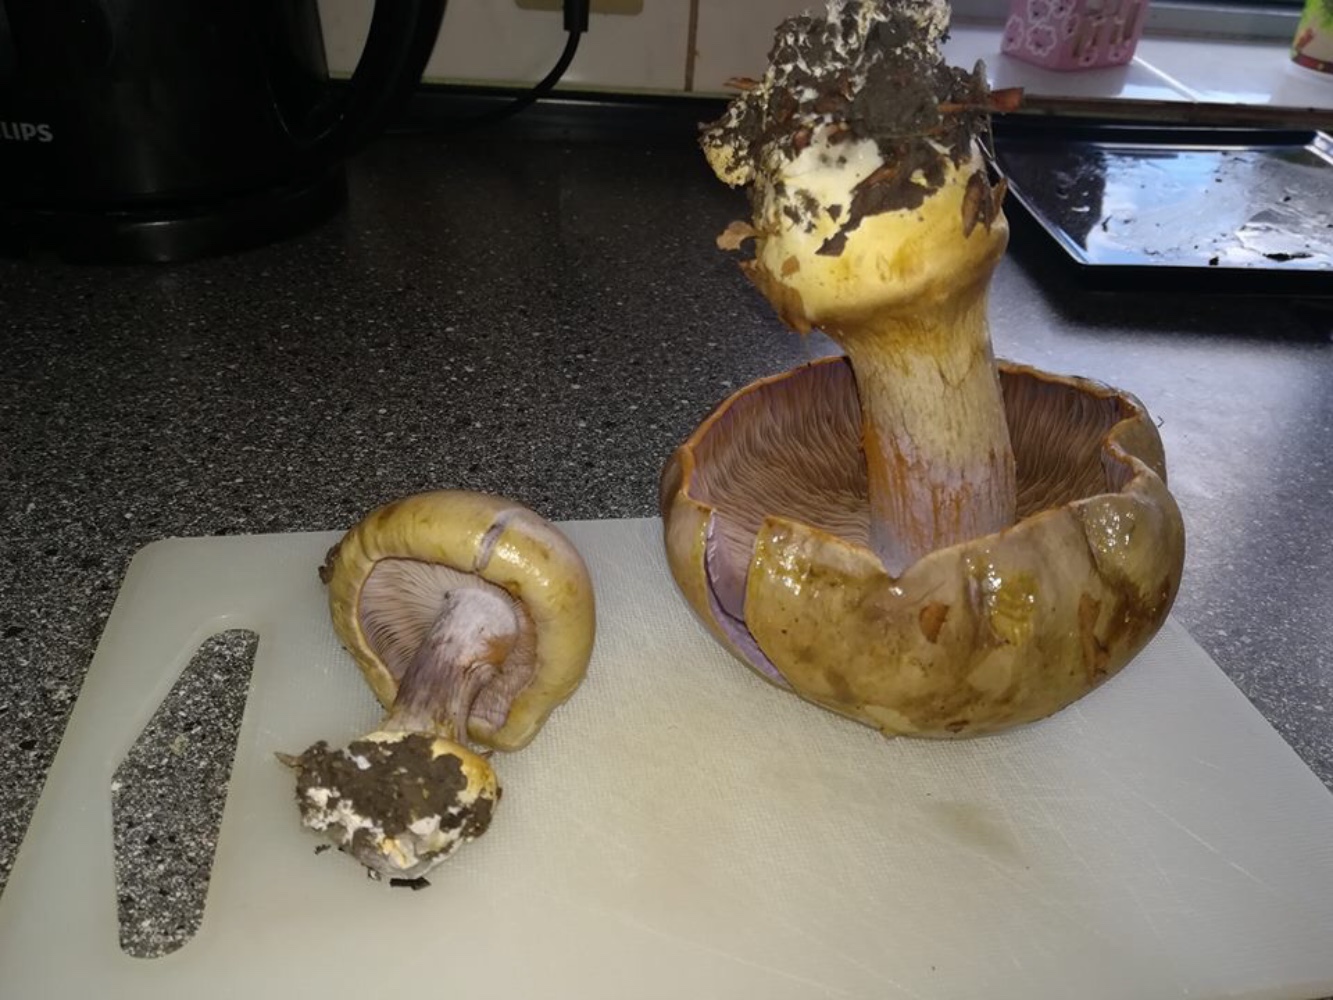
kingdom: Fungi
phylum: Basidiomycota
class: Agaricomycetes
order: Agaricales
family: Cortinariaceae
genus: Cortinarius
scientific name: Cortinarius anserinus
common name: bøge-slørhat
